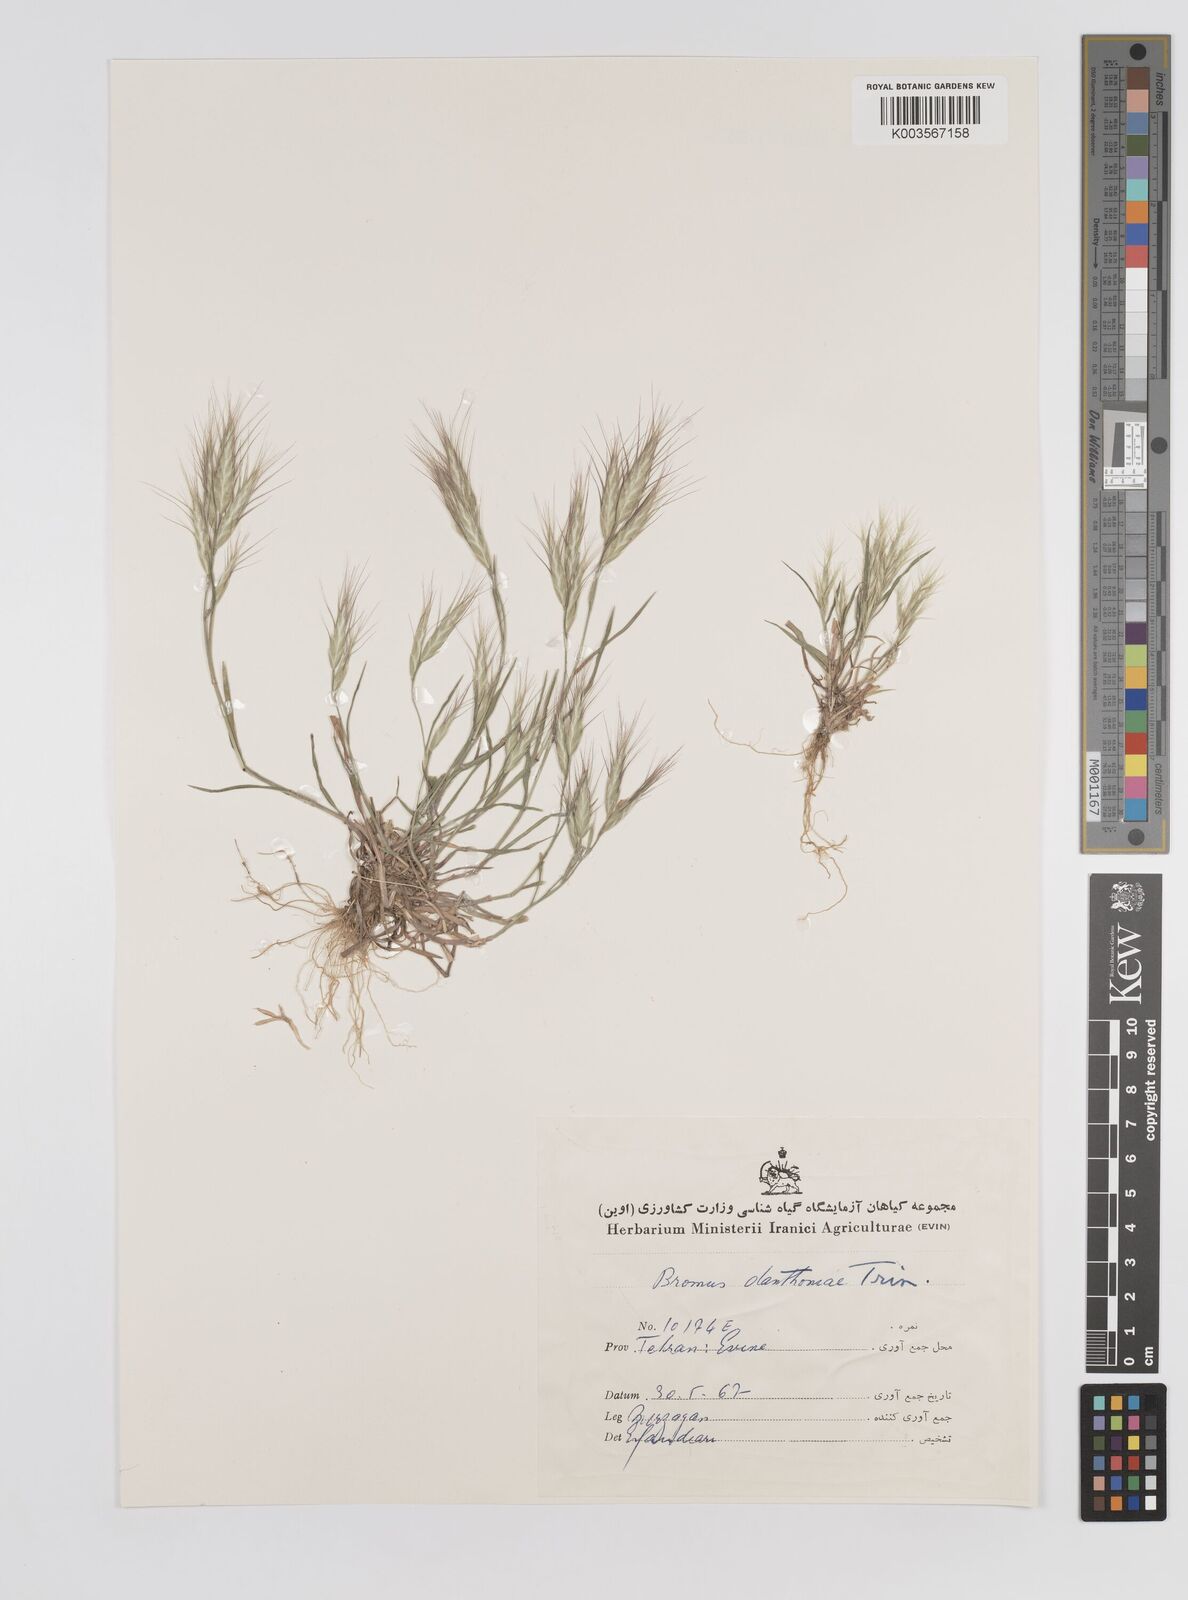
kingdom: Plantae
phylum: Tracheophyta
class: Liliopsida
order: Poales
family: Poaceae
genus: Bromus
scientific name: Bromus danthoniae
